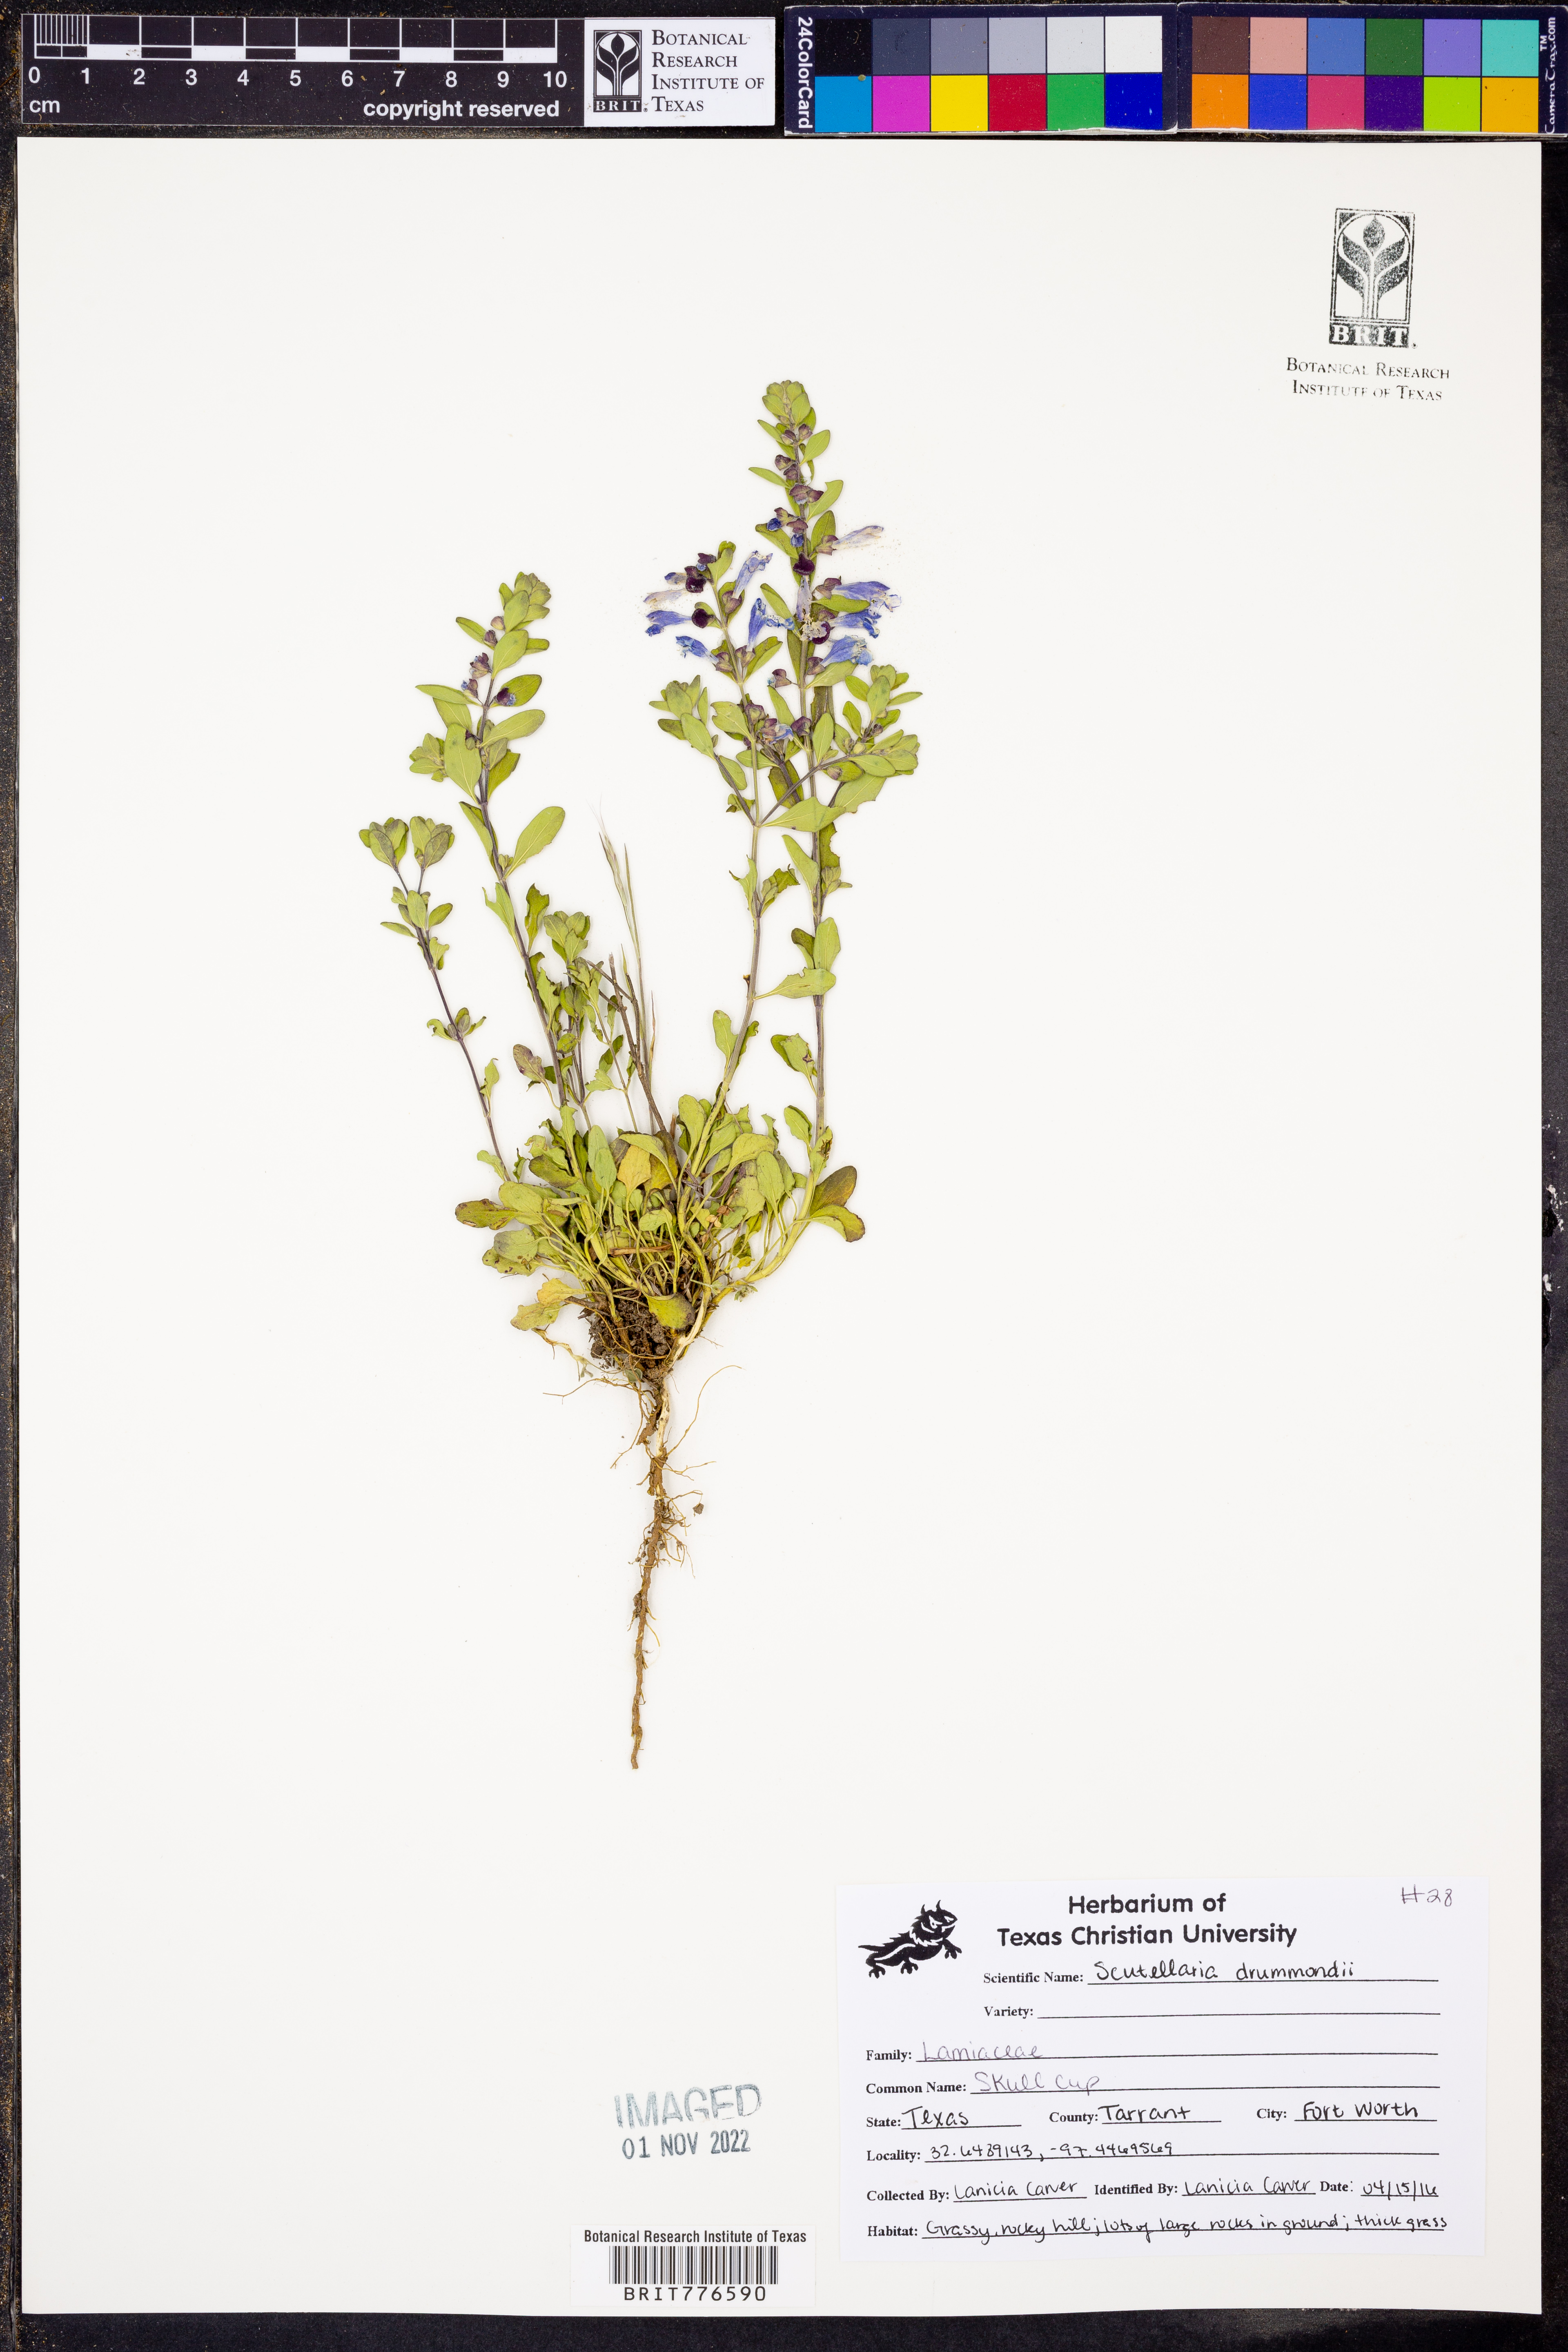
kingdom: Plantae
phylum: Tracheophyta
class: Magnoliopsida
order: Lamiales
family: Lamiaceae
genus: Scutellaria
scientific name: Scutellaria drummondii
